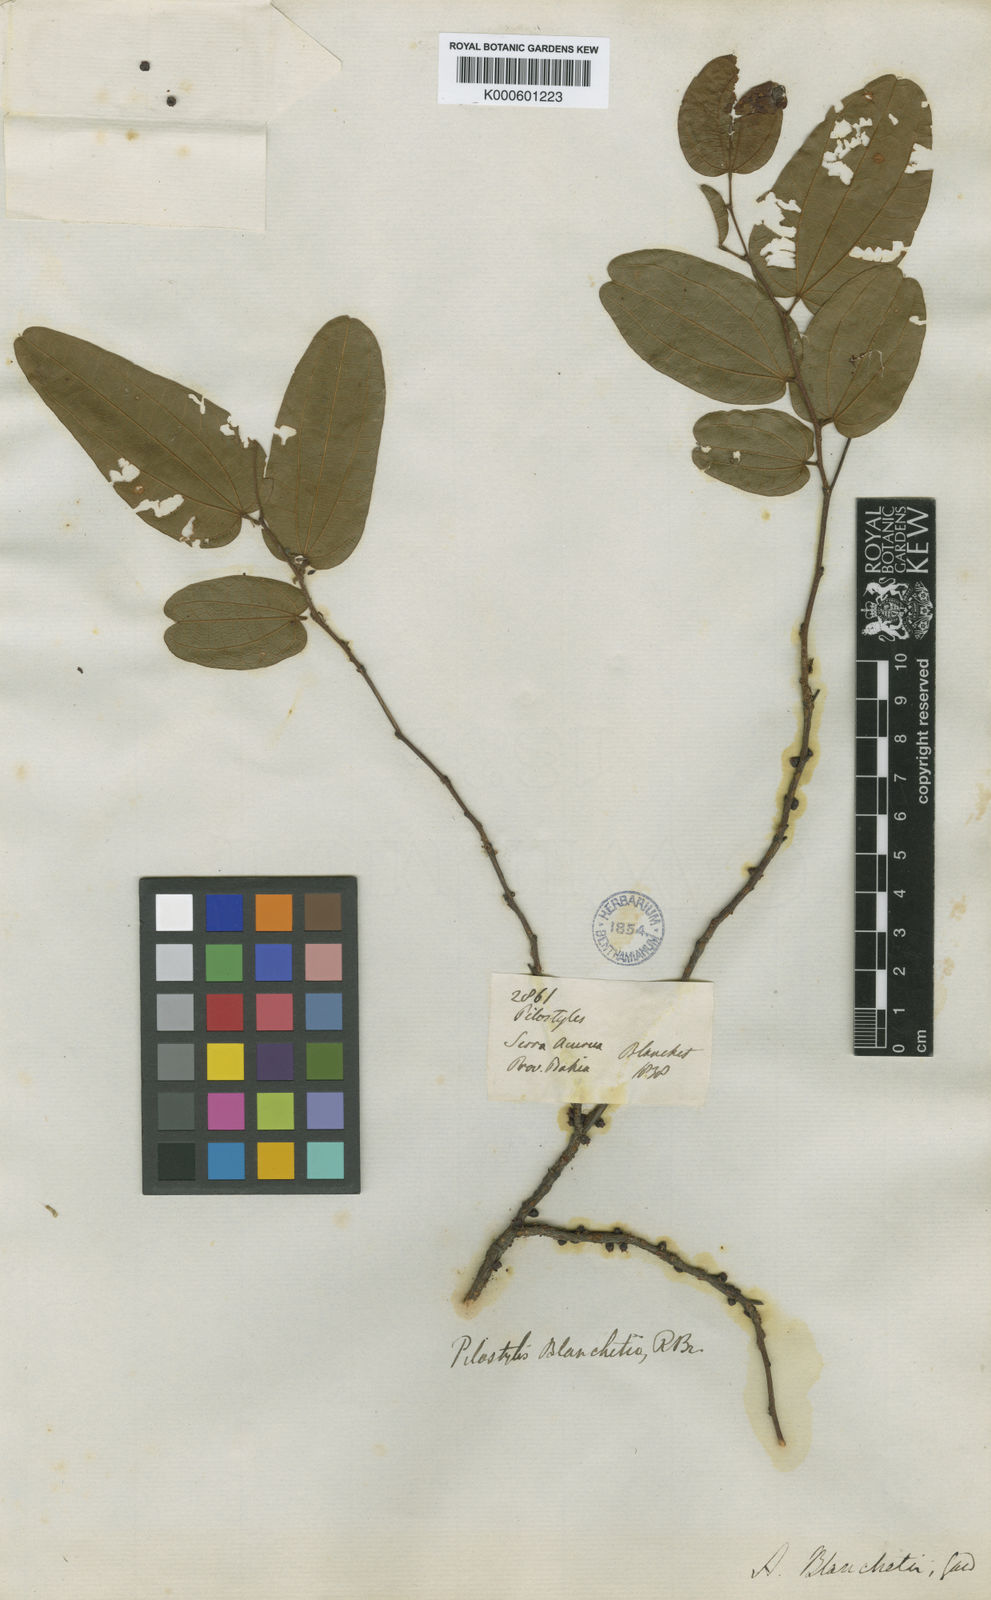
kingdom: Plantae
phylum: Tracheophyta
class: Magnoliopsida
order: Cucurbitales
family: Apodanthaceae
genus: Pilostyles
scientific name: Pilostyles blanchetii
